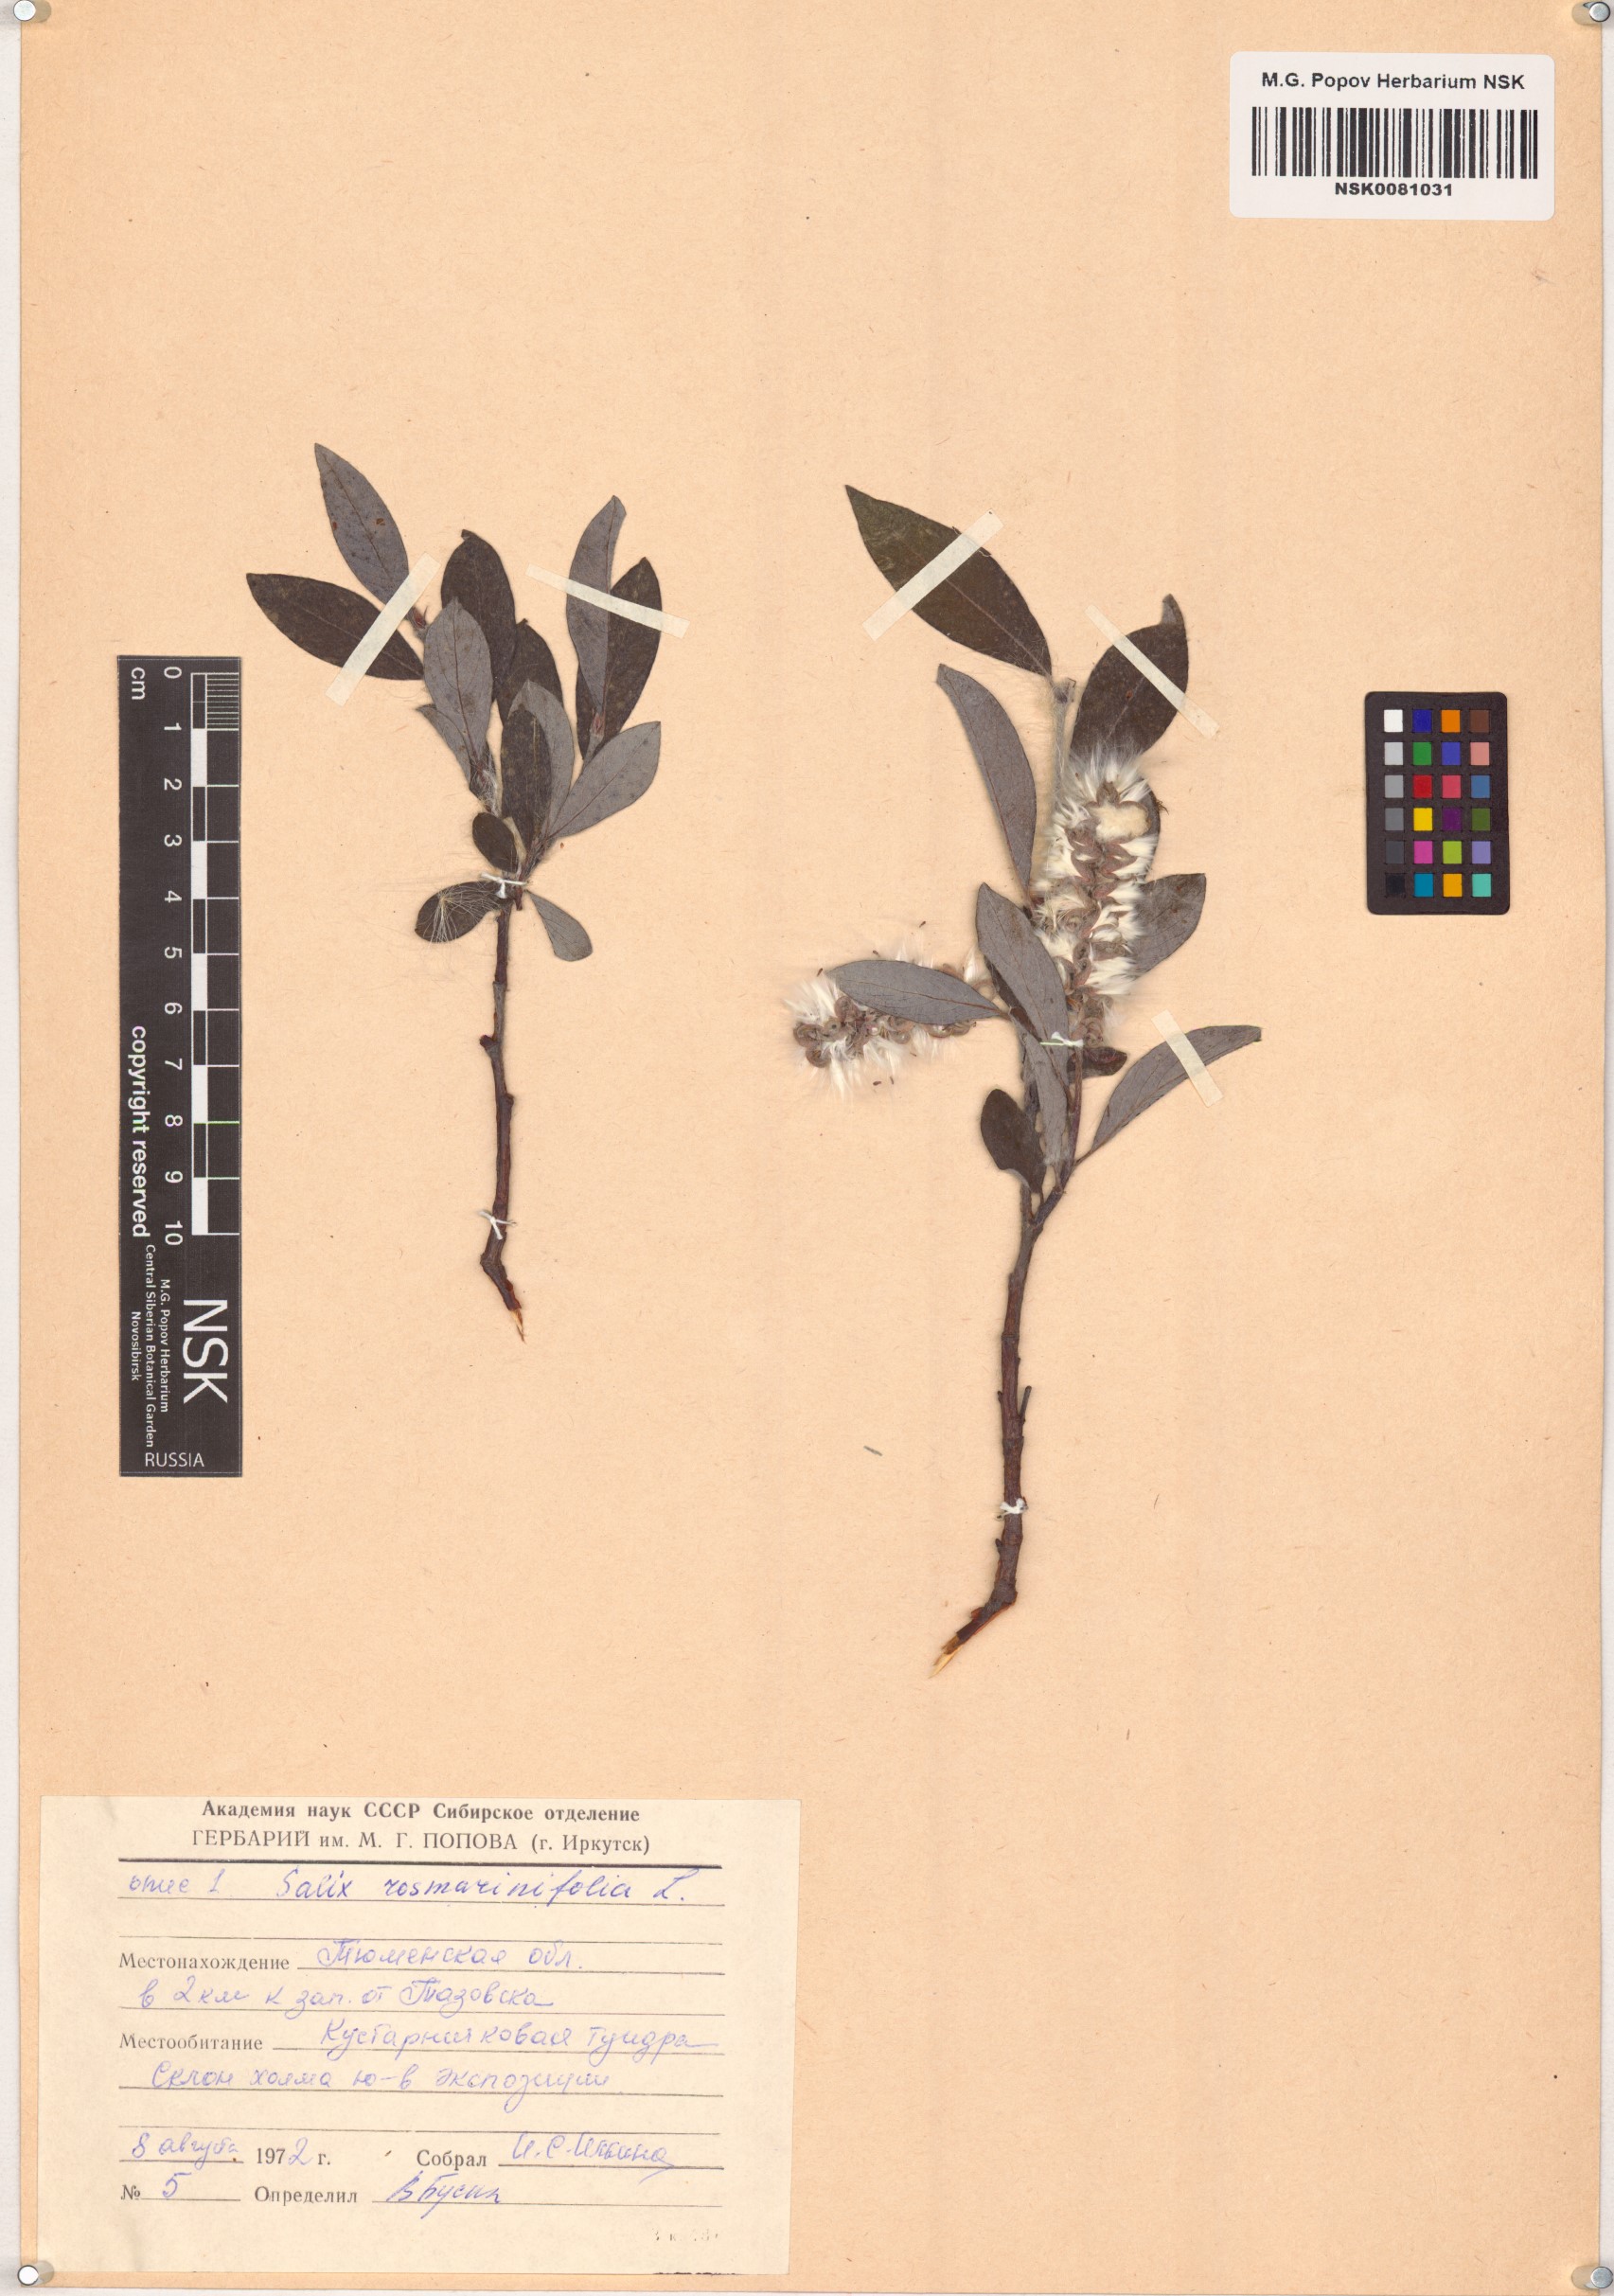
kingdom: Plantae
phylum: Tracheophyta
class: Magnoliopsida
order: Malpighiales
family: Salicaceae
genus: Salix
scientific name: Salix rosmarinifolia
